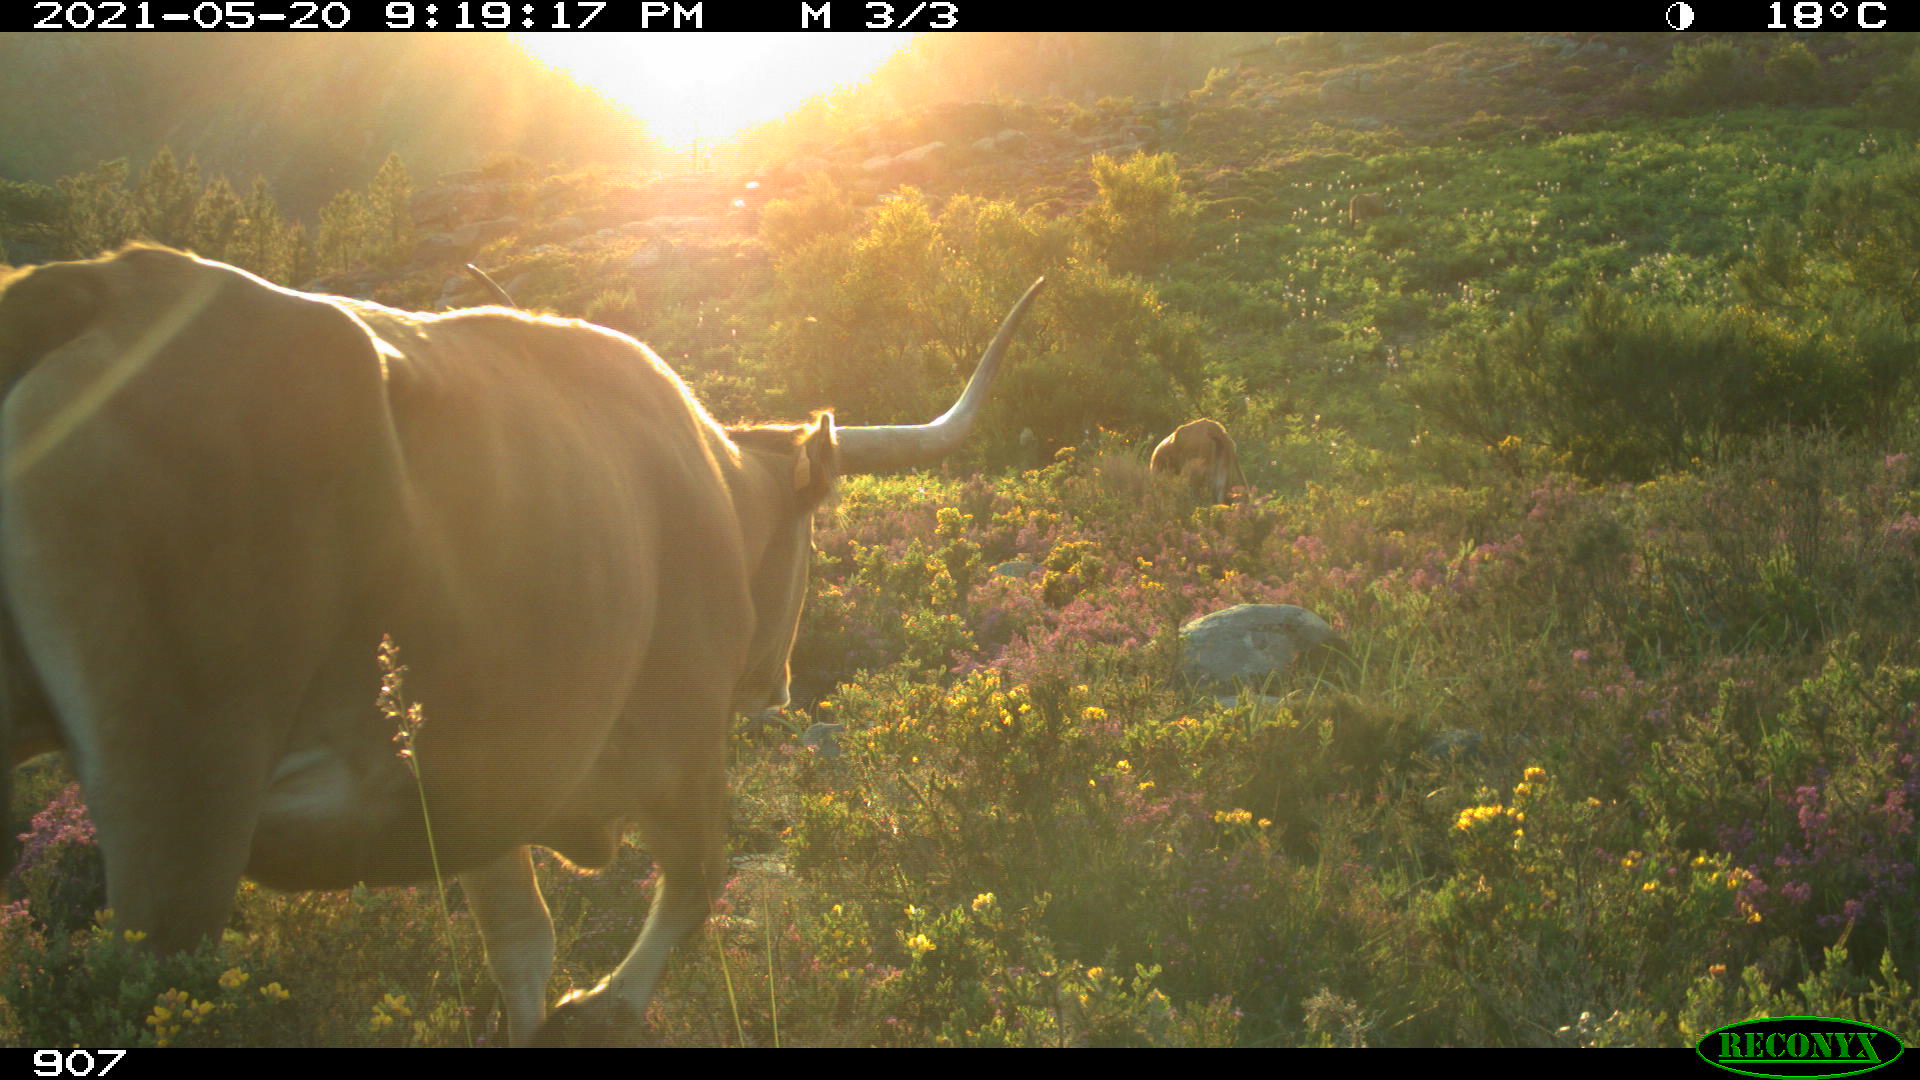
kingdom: Animalia
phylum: Chordata
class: Mammalia
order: Artiodactyla
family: Bovidae
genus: Bos
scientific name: Bos taurus
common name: Domesticated cattle
